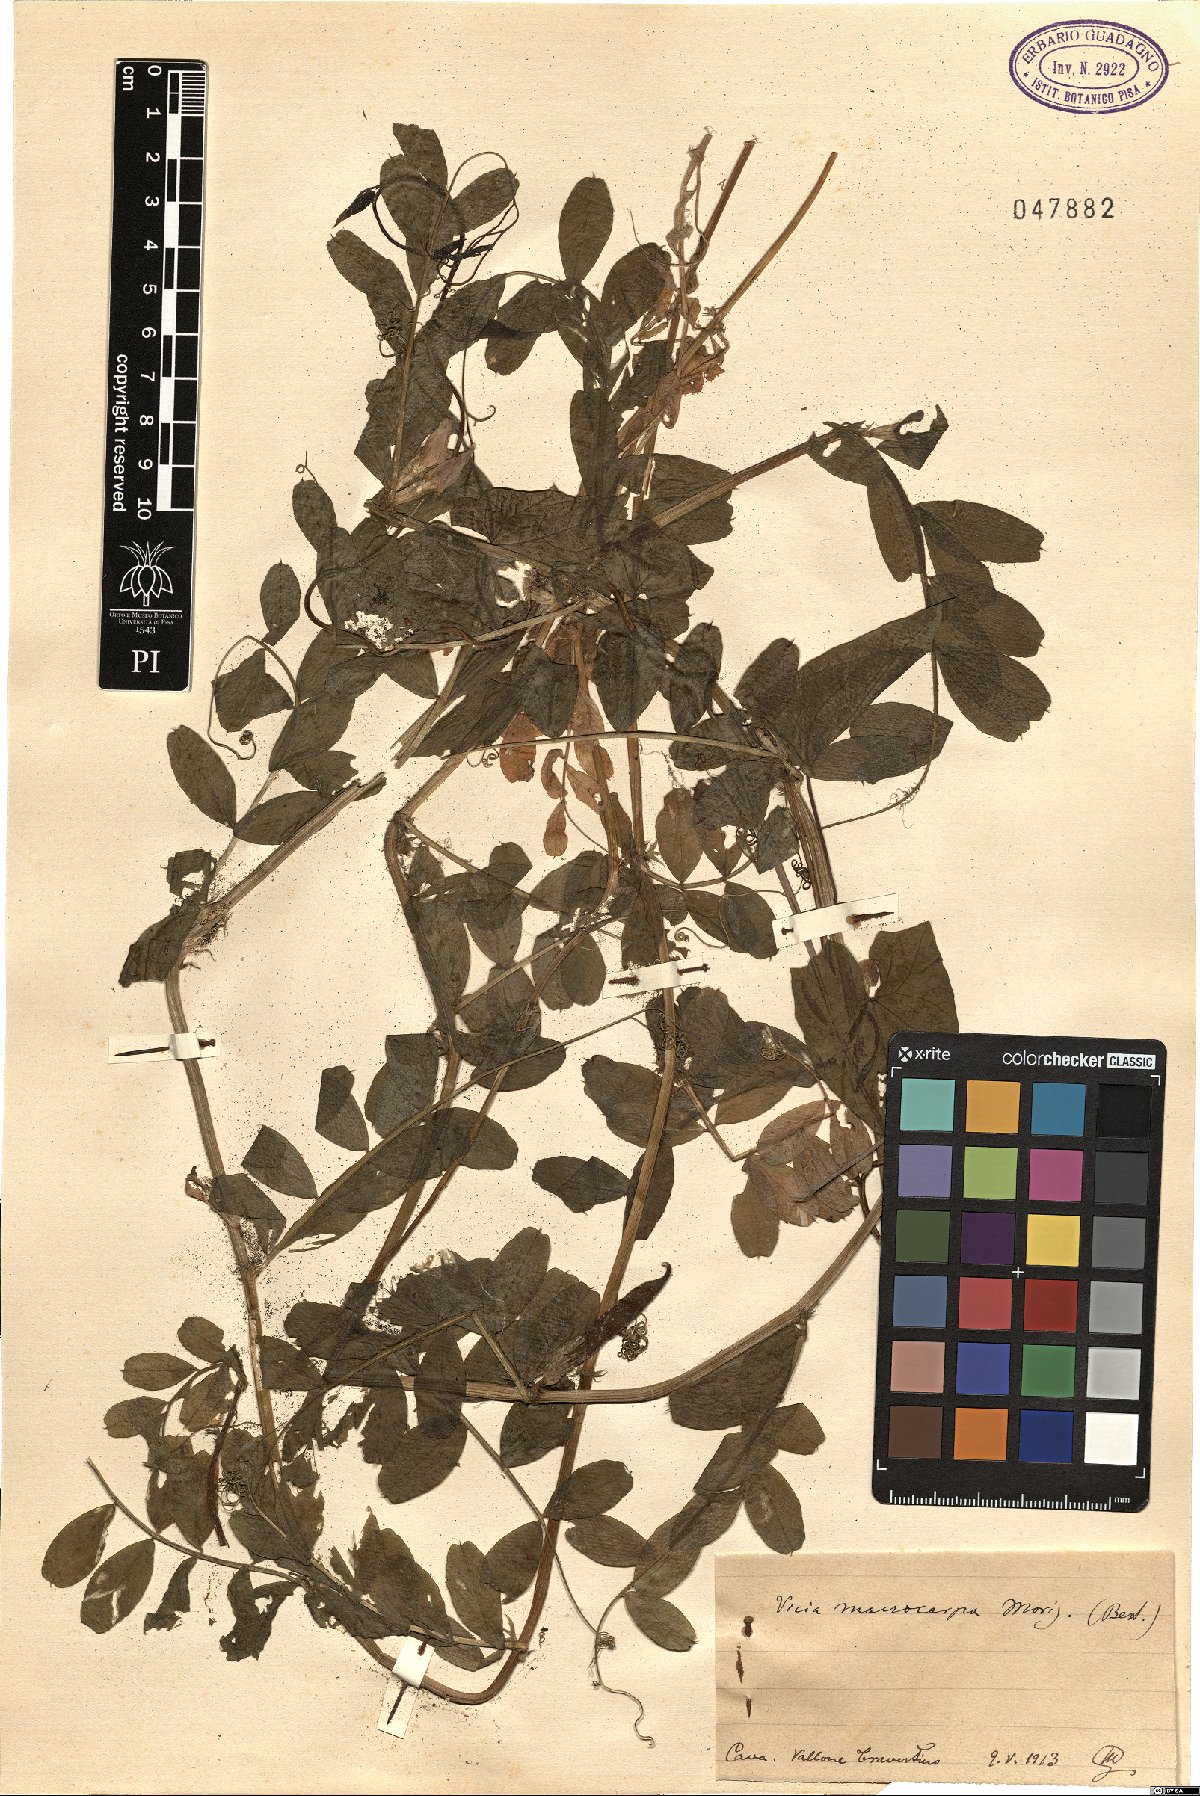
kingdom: Plantae
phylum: Tracheophyta
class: Magnoliopsida
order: Fabales
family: Fabaceae
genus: Vicia
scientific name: Vicia sativa
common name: Garden vetch
